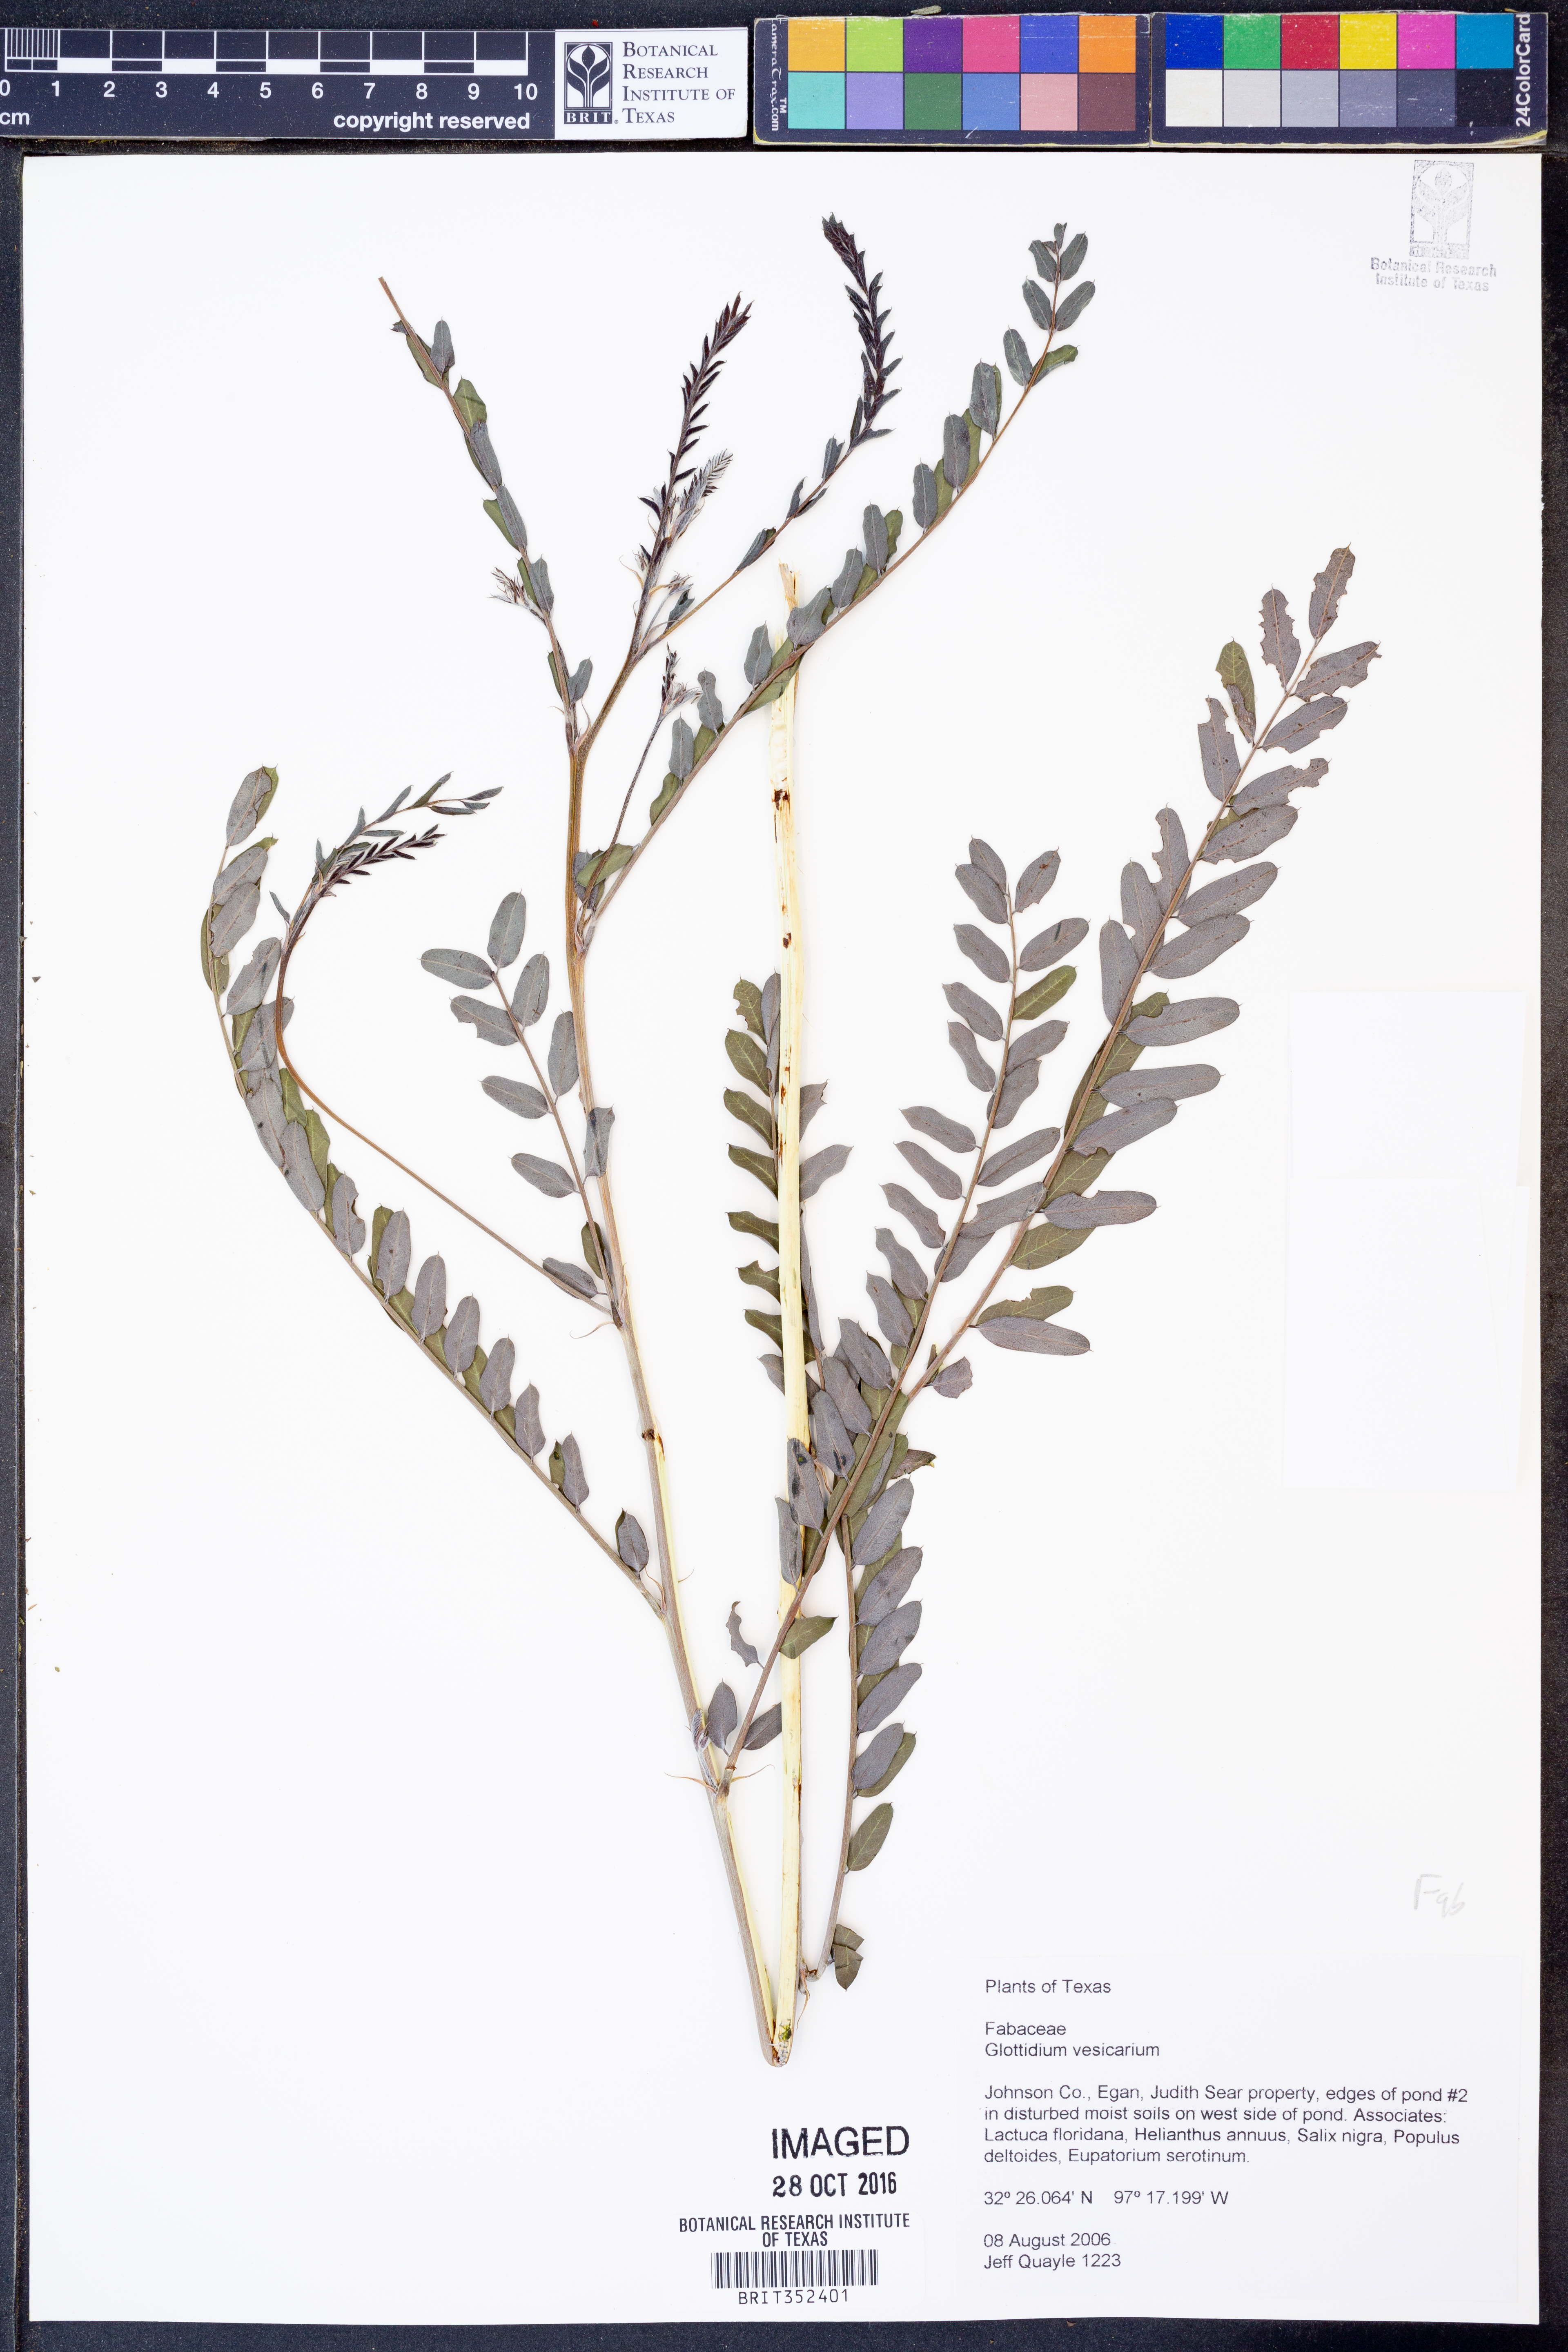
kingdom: Plantae
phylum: Tracheophyta
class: Magnoliopsida
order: Fabales
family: Fabaceae
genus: Sesbania
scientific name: Sesbania vesicaria
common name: Bagpod
